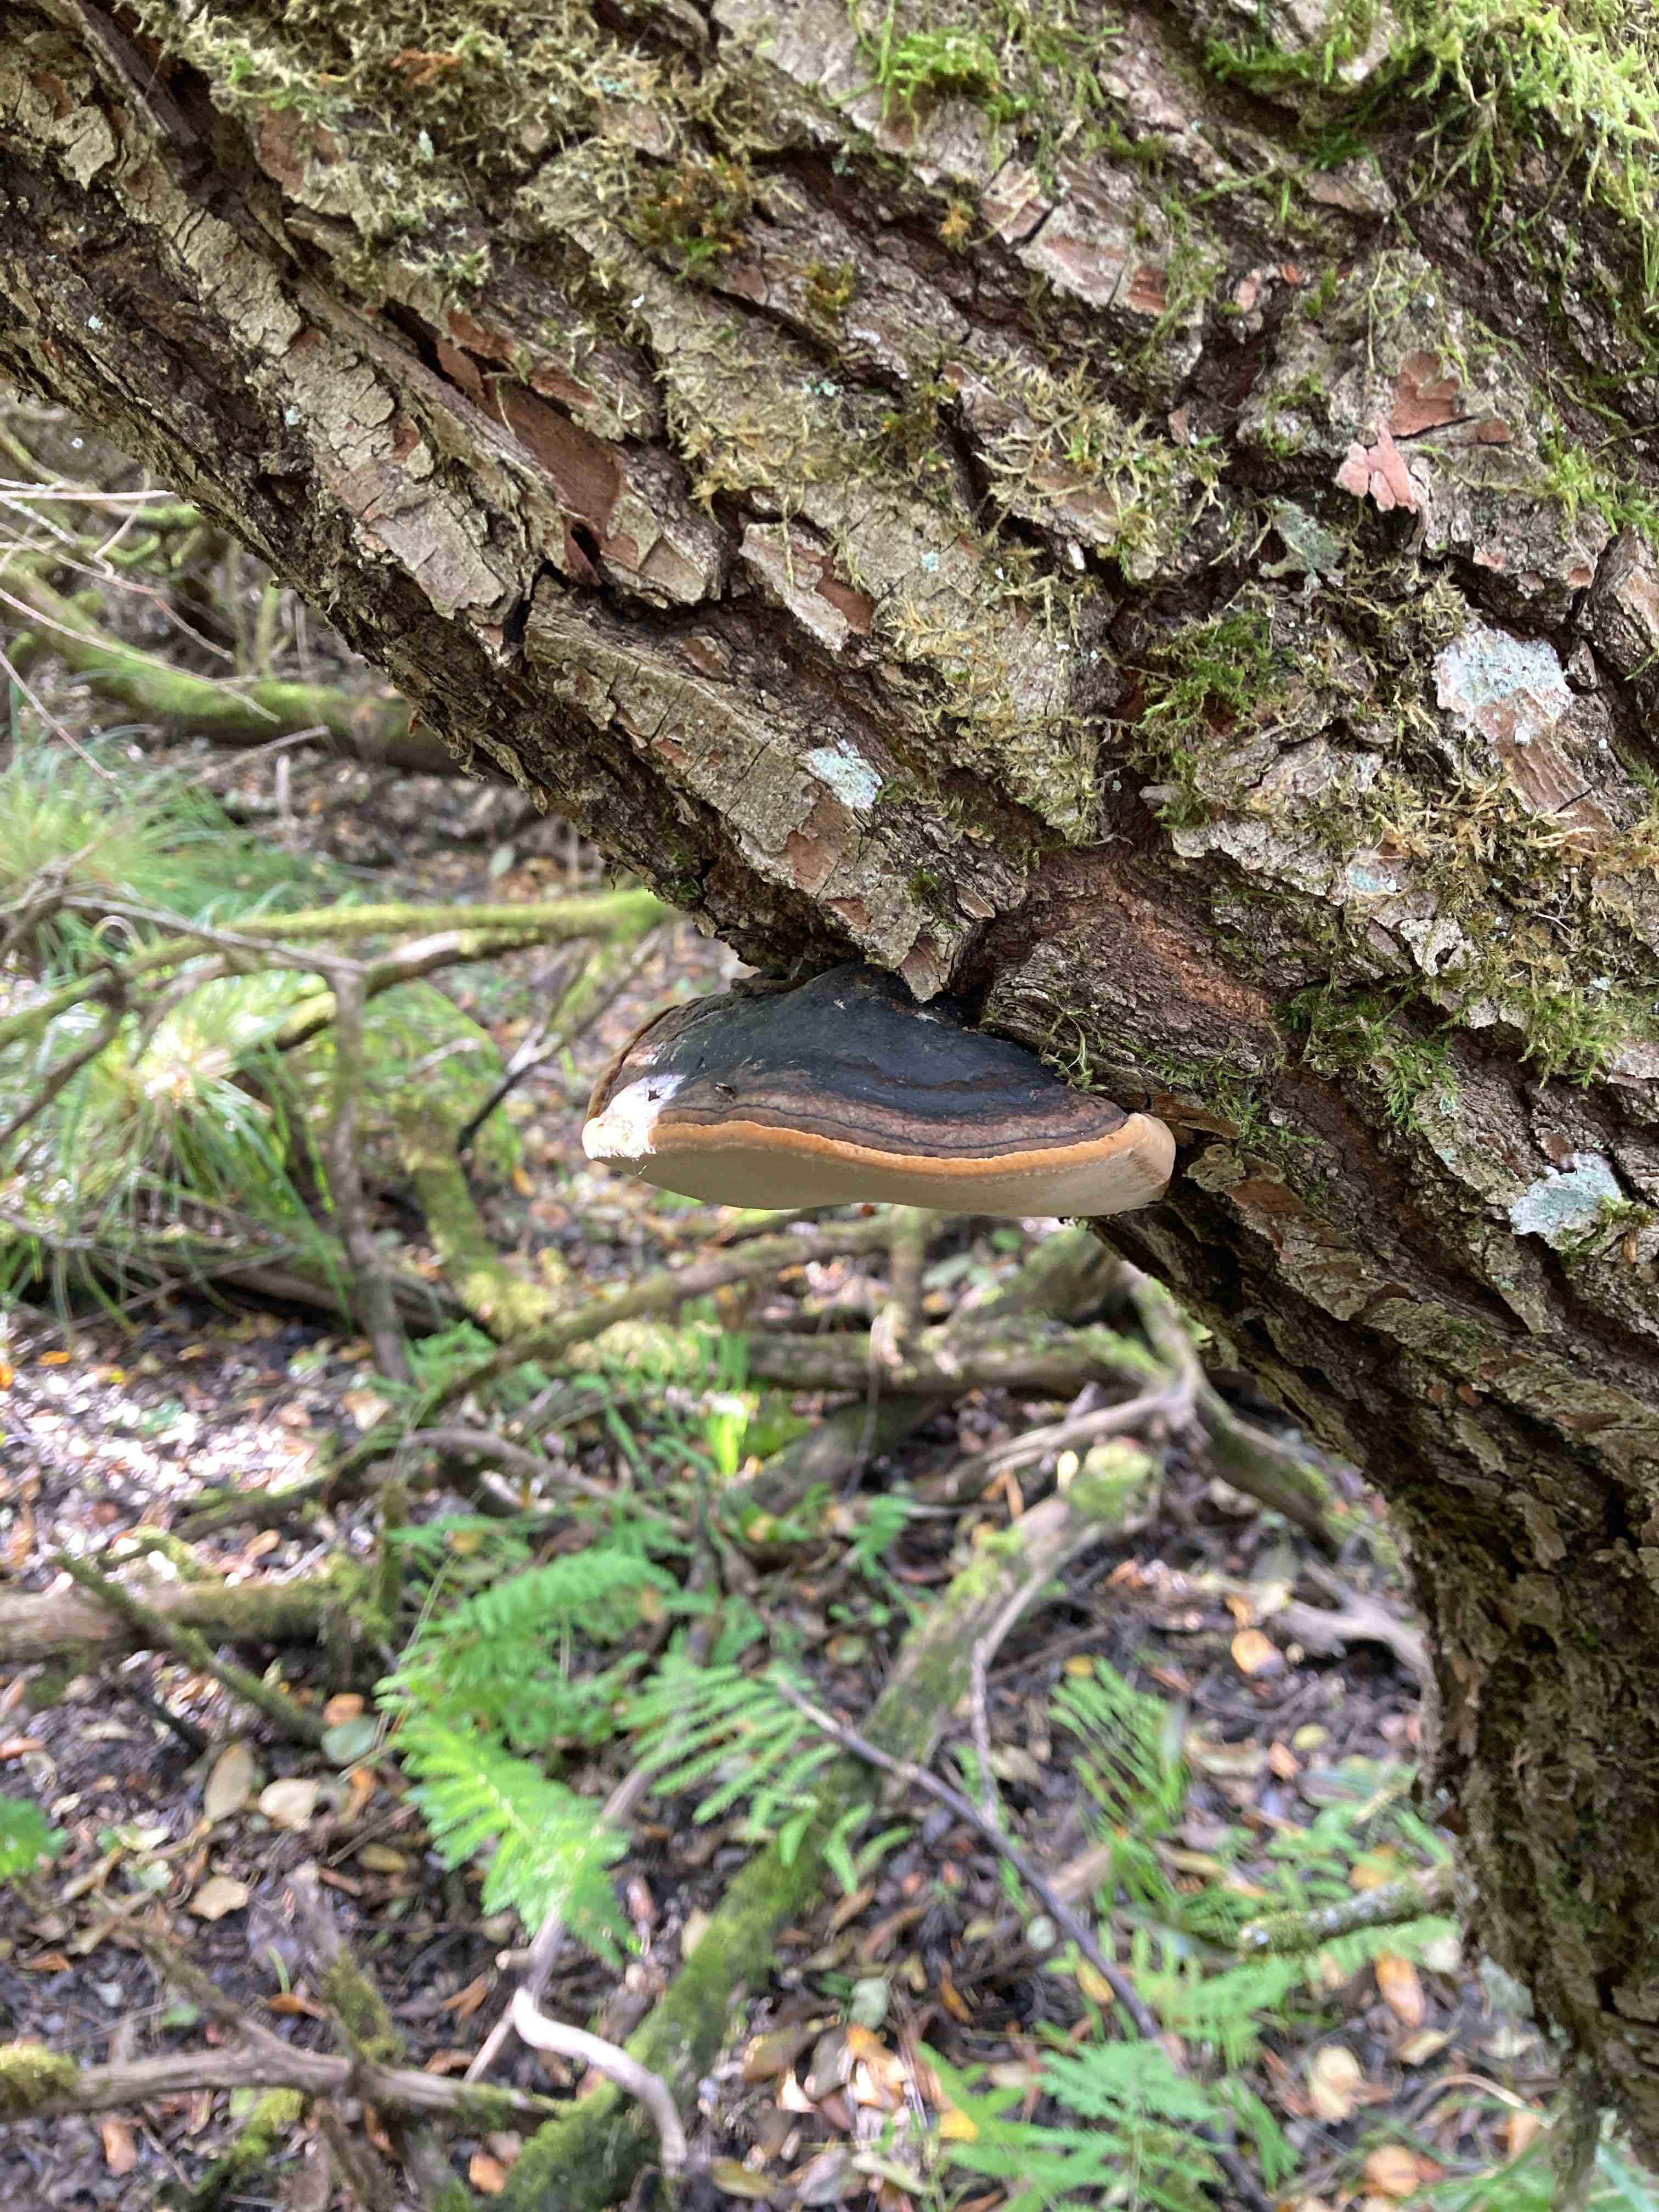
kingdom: Fungi
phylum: Basidiomycota
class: Agaricomycetes
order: Hymenochaetales
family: Hymenochaetaceae
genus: Phellinus
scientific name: Phellinus igniarius
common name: almindelig ildporesvamp
